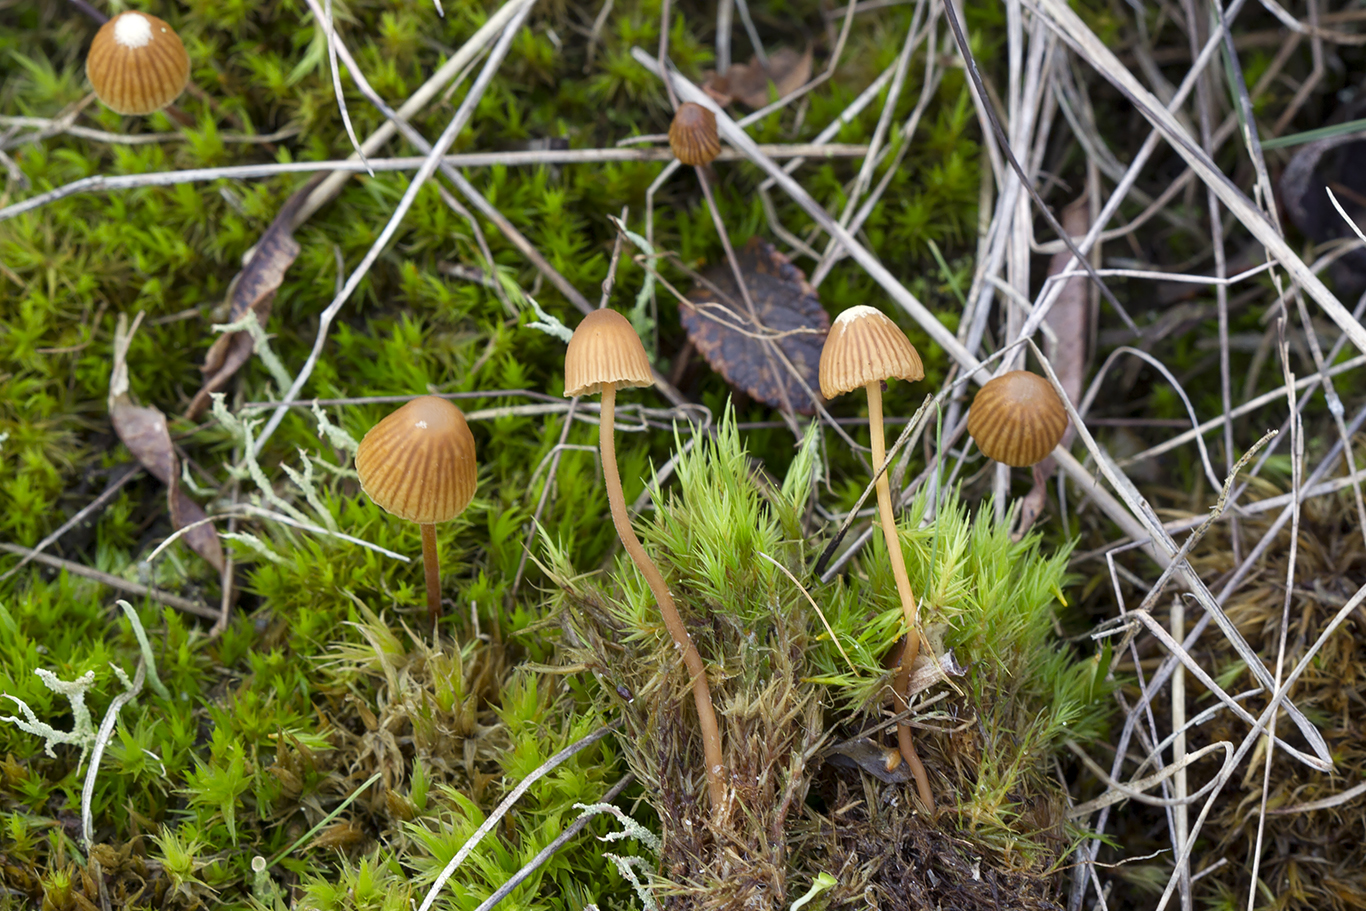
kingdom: Fungi
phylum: Basidiomycota
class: Agaricomycetes
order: Agaricales
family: Hymenogastraceae
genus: Galerina
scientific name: Galerina atkinsoniana
